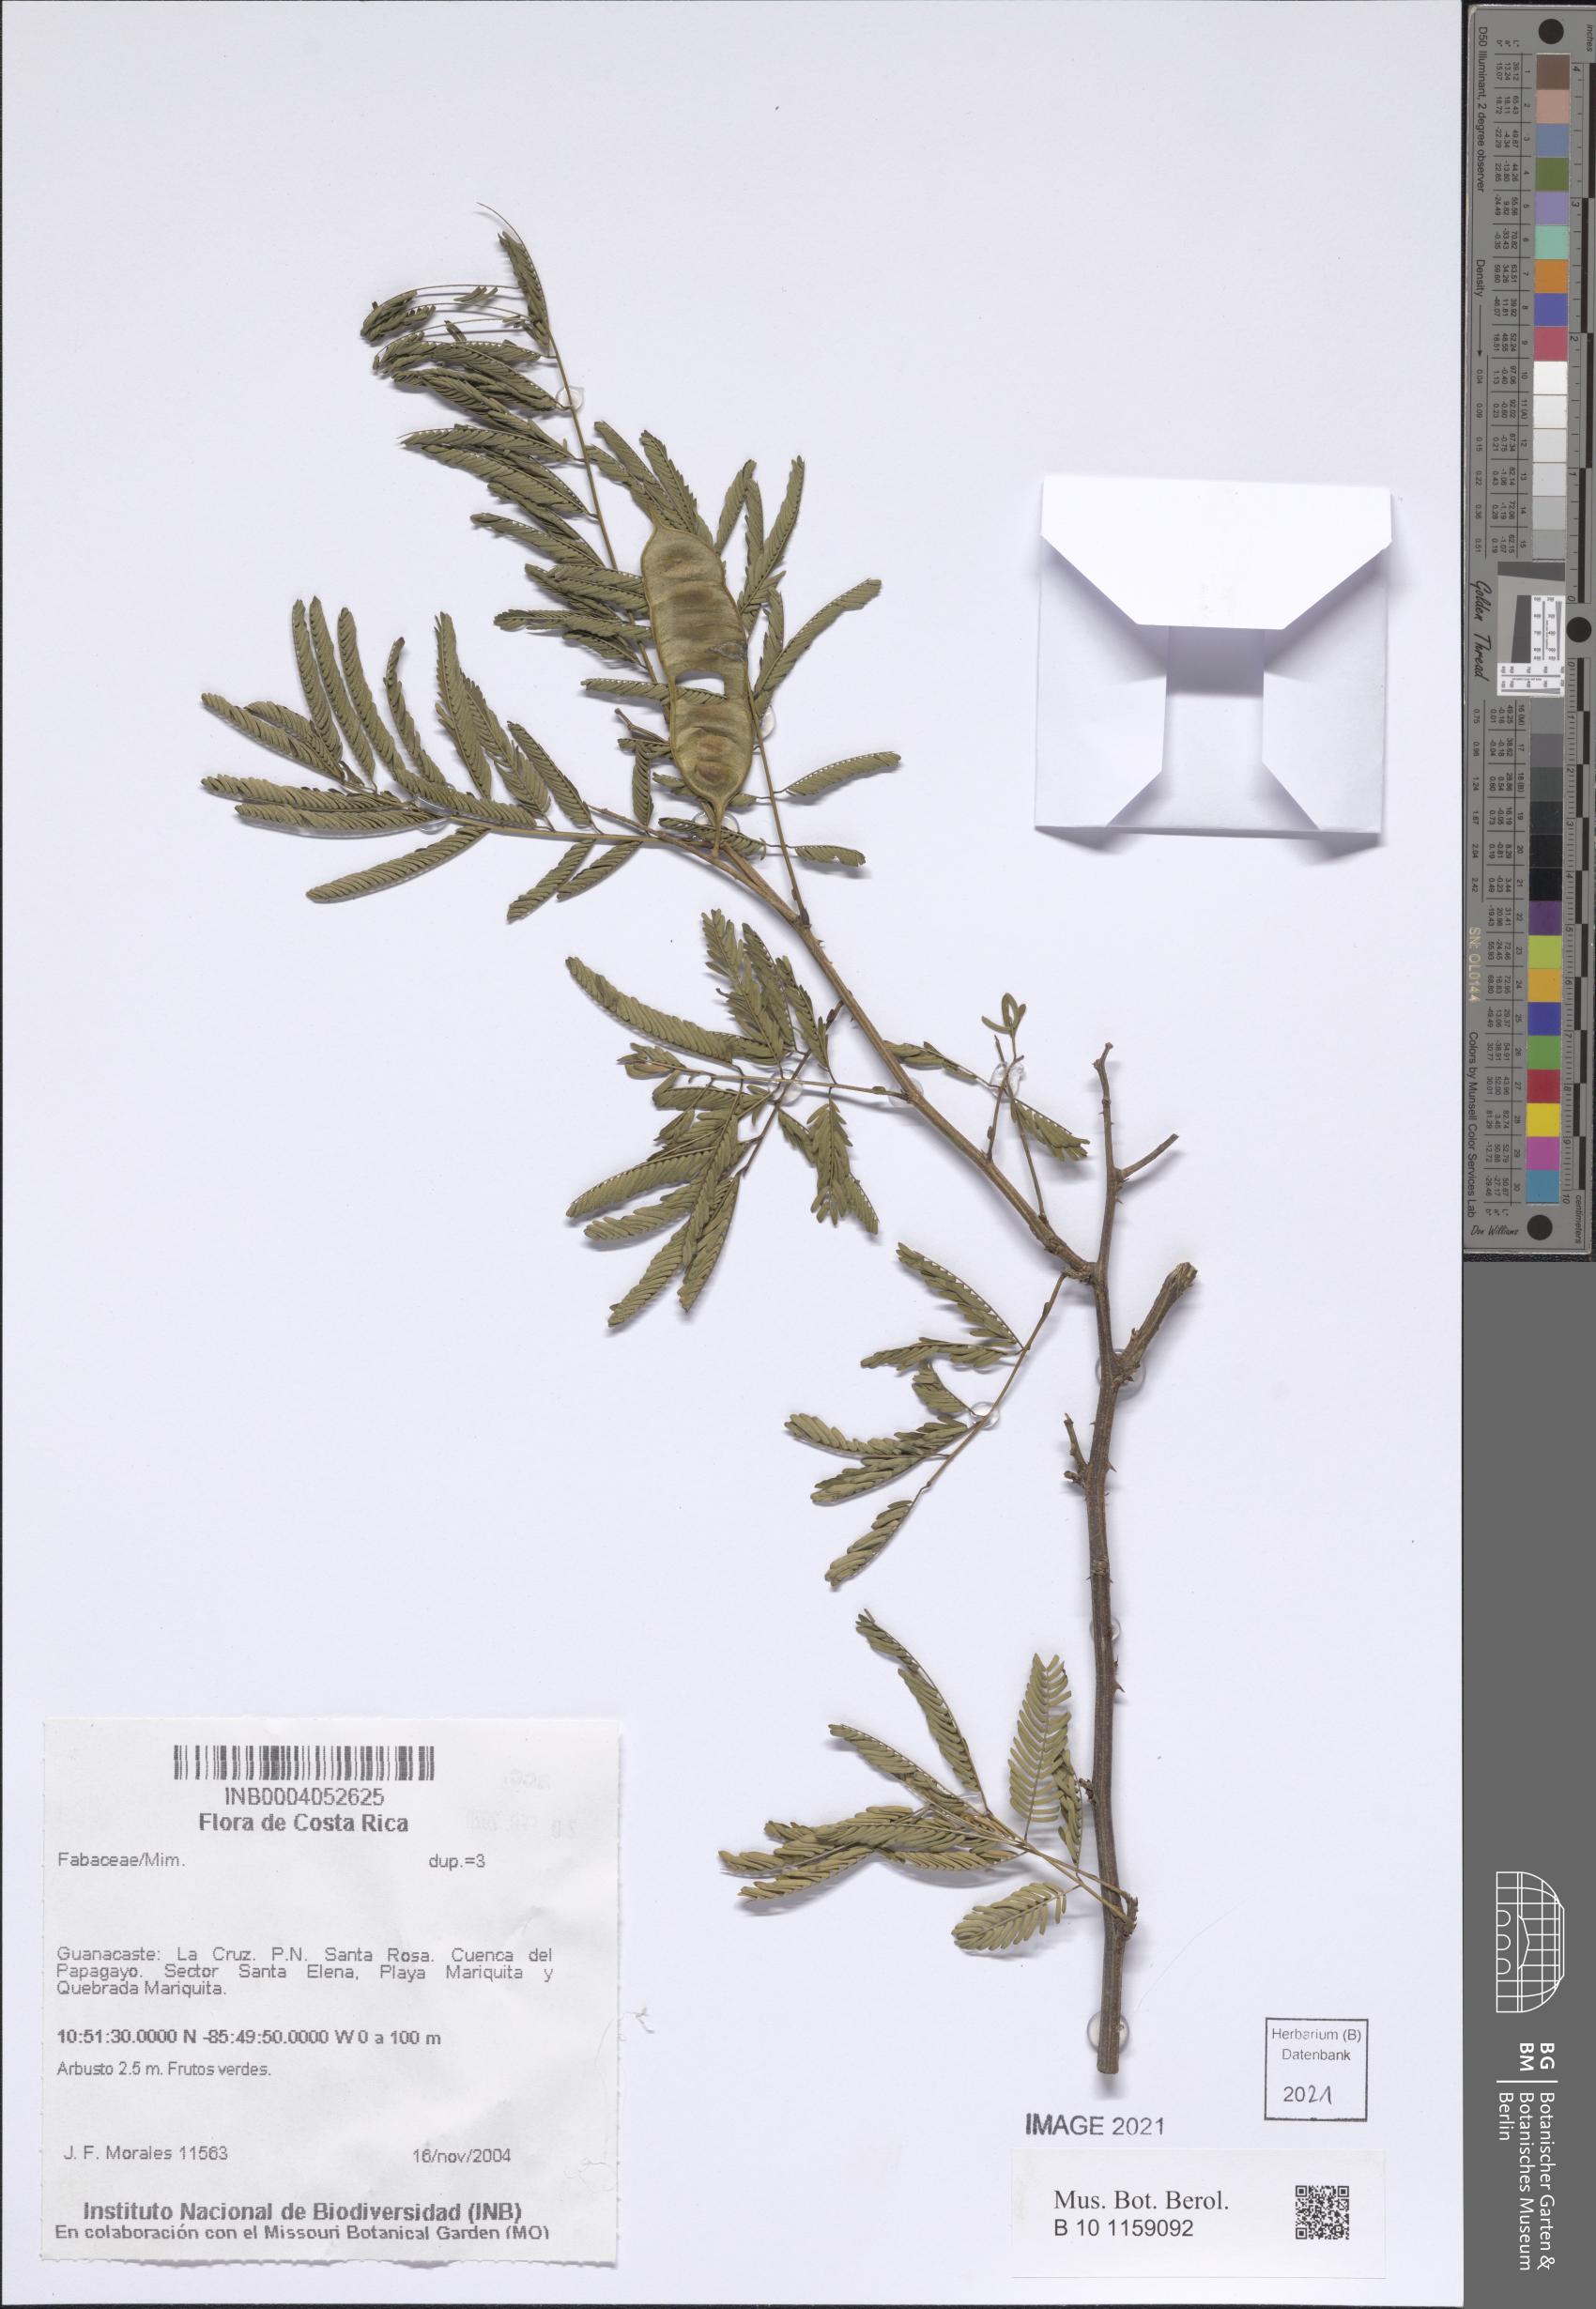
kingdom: Plantae
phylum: Tracheophyta
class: Magnoliopsida
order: Fabales
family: Fabaceae
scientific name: Fabaceae
